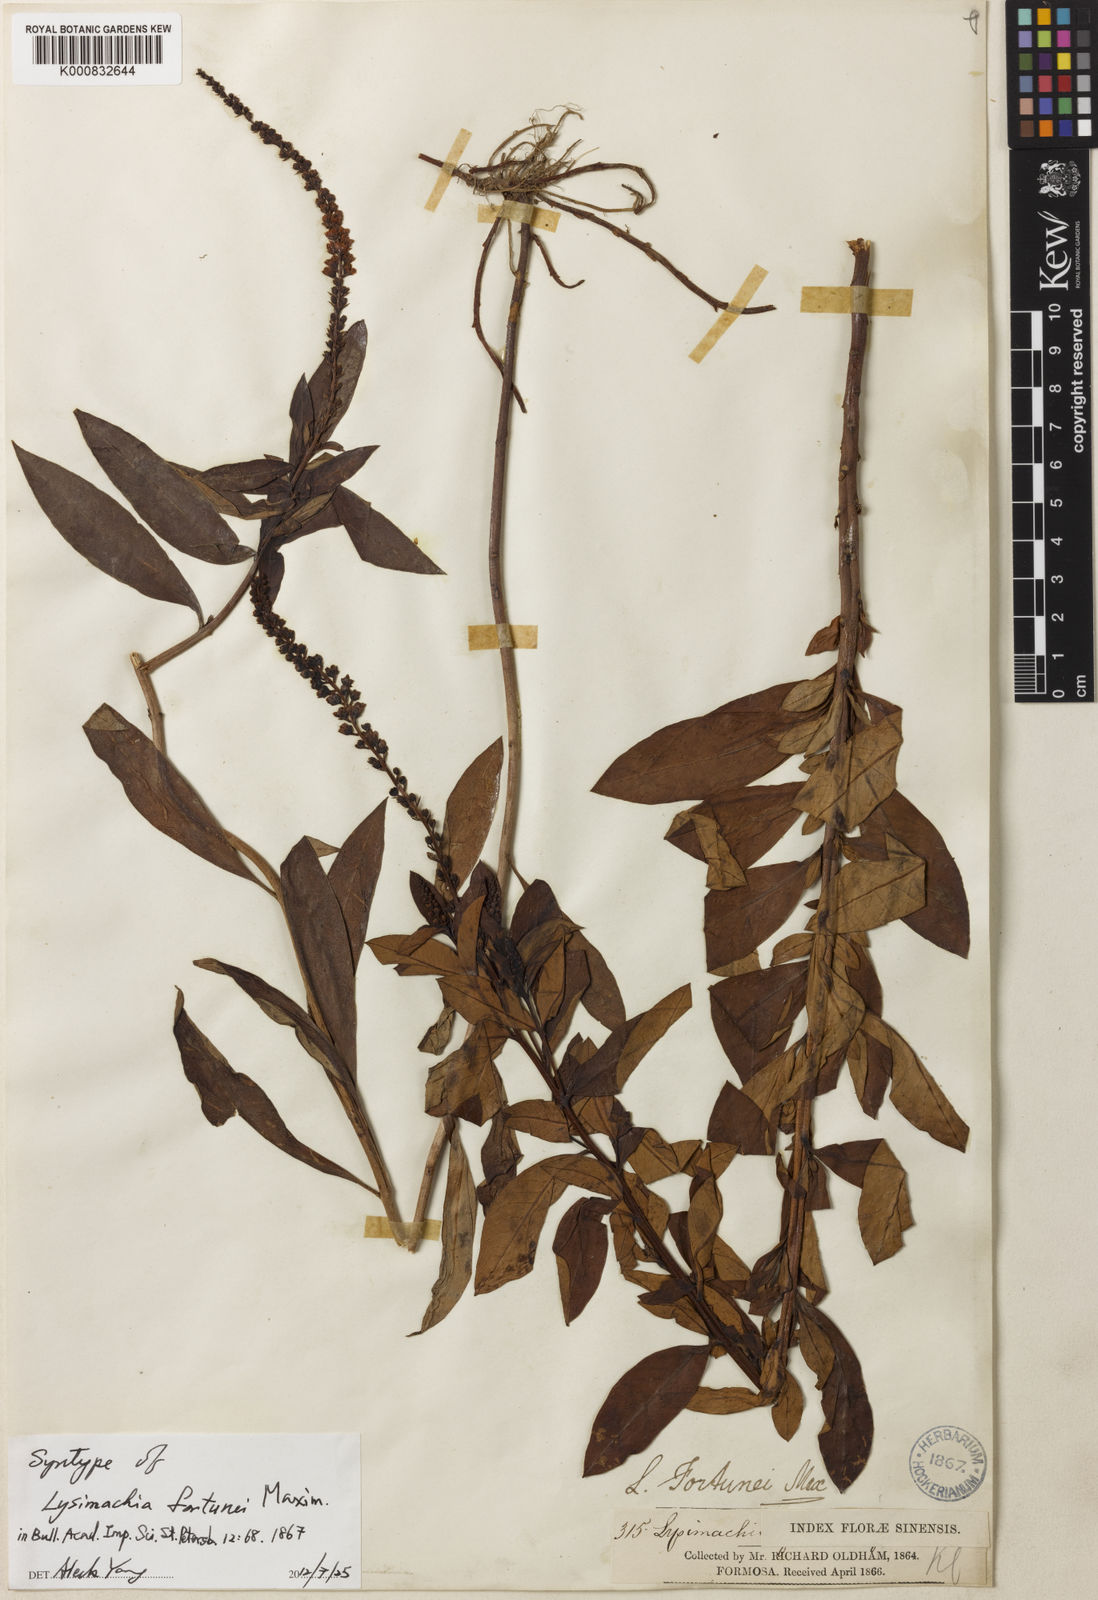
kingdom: Plantae
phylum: Tracheophyta
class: Magnoliopsida
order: Ericales
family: Primulaceae
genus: Lysimachia
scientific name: Lysimachia fortunei
